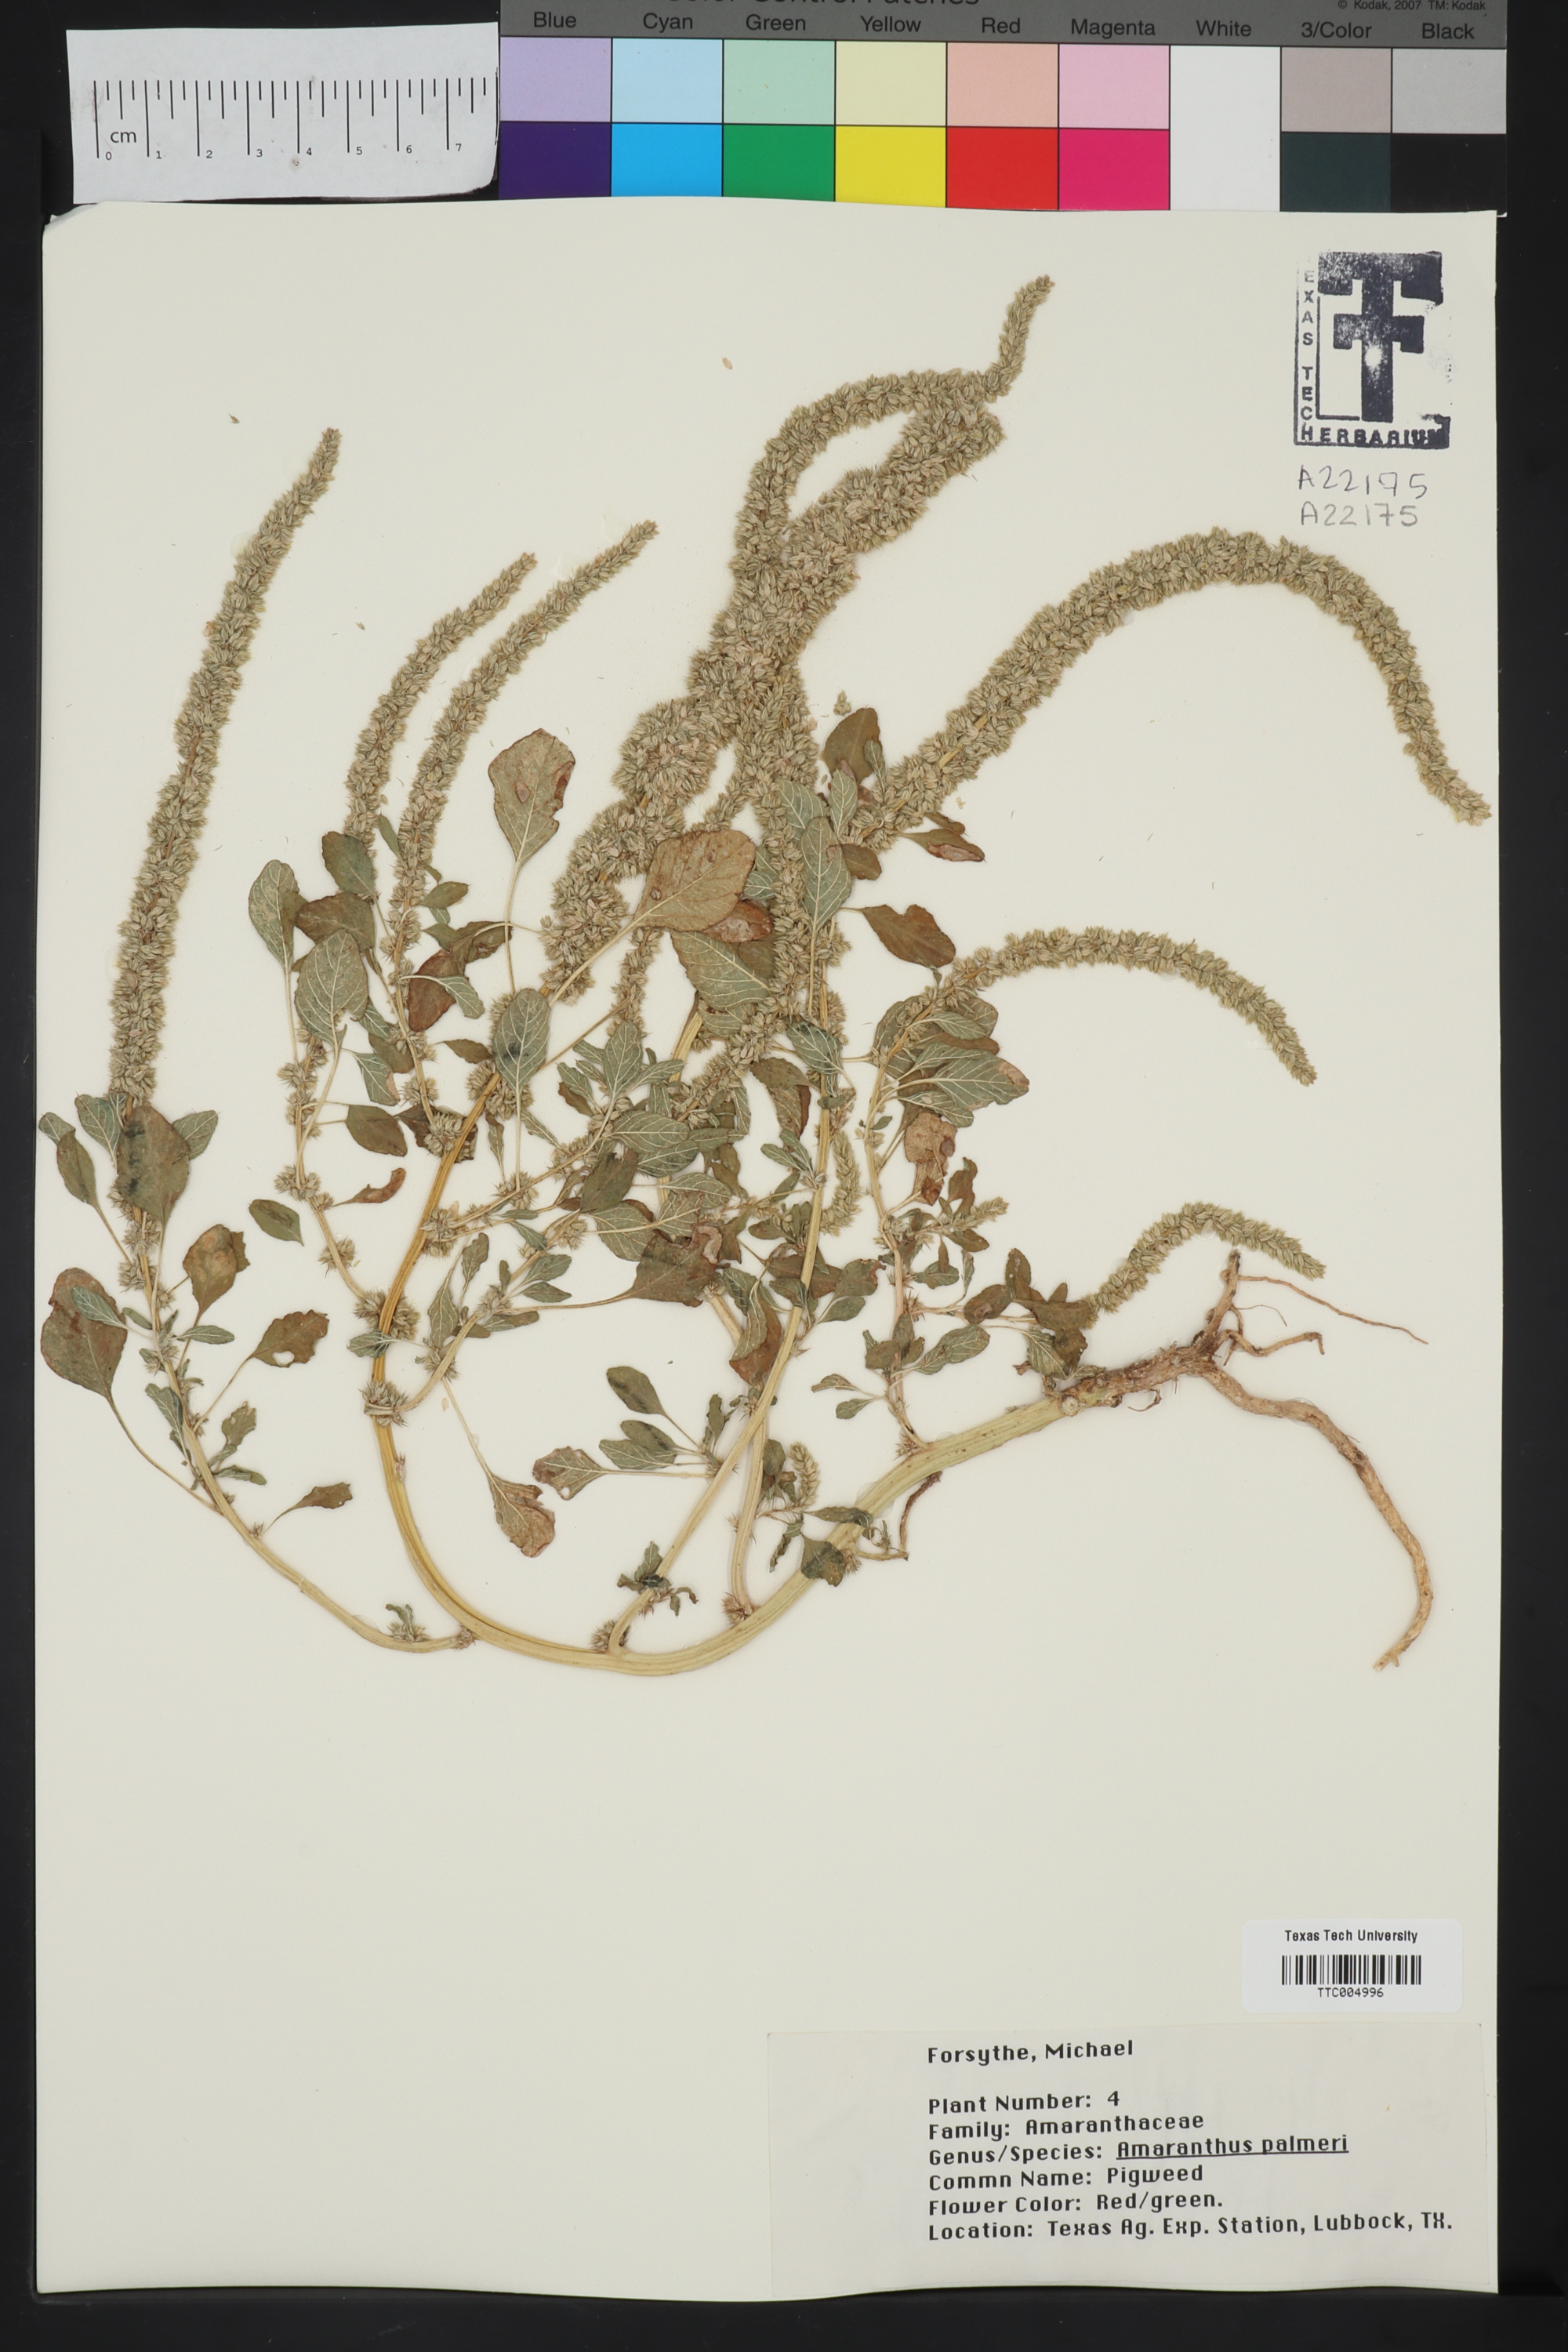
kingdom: Plantae
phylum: Tracheophyta
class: Magnoliopsida
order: Caryophyllales
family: Amaranthaceae
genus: Amaranthus
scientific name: Amaranthus palmeri
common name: Dioecious amaranth
